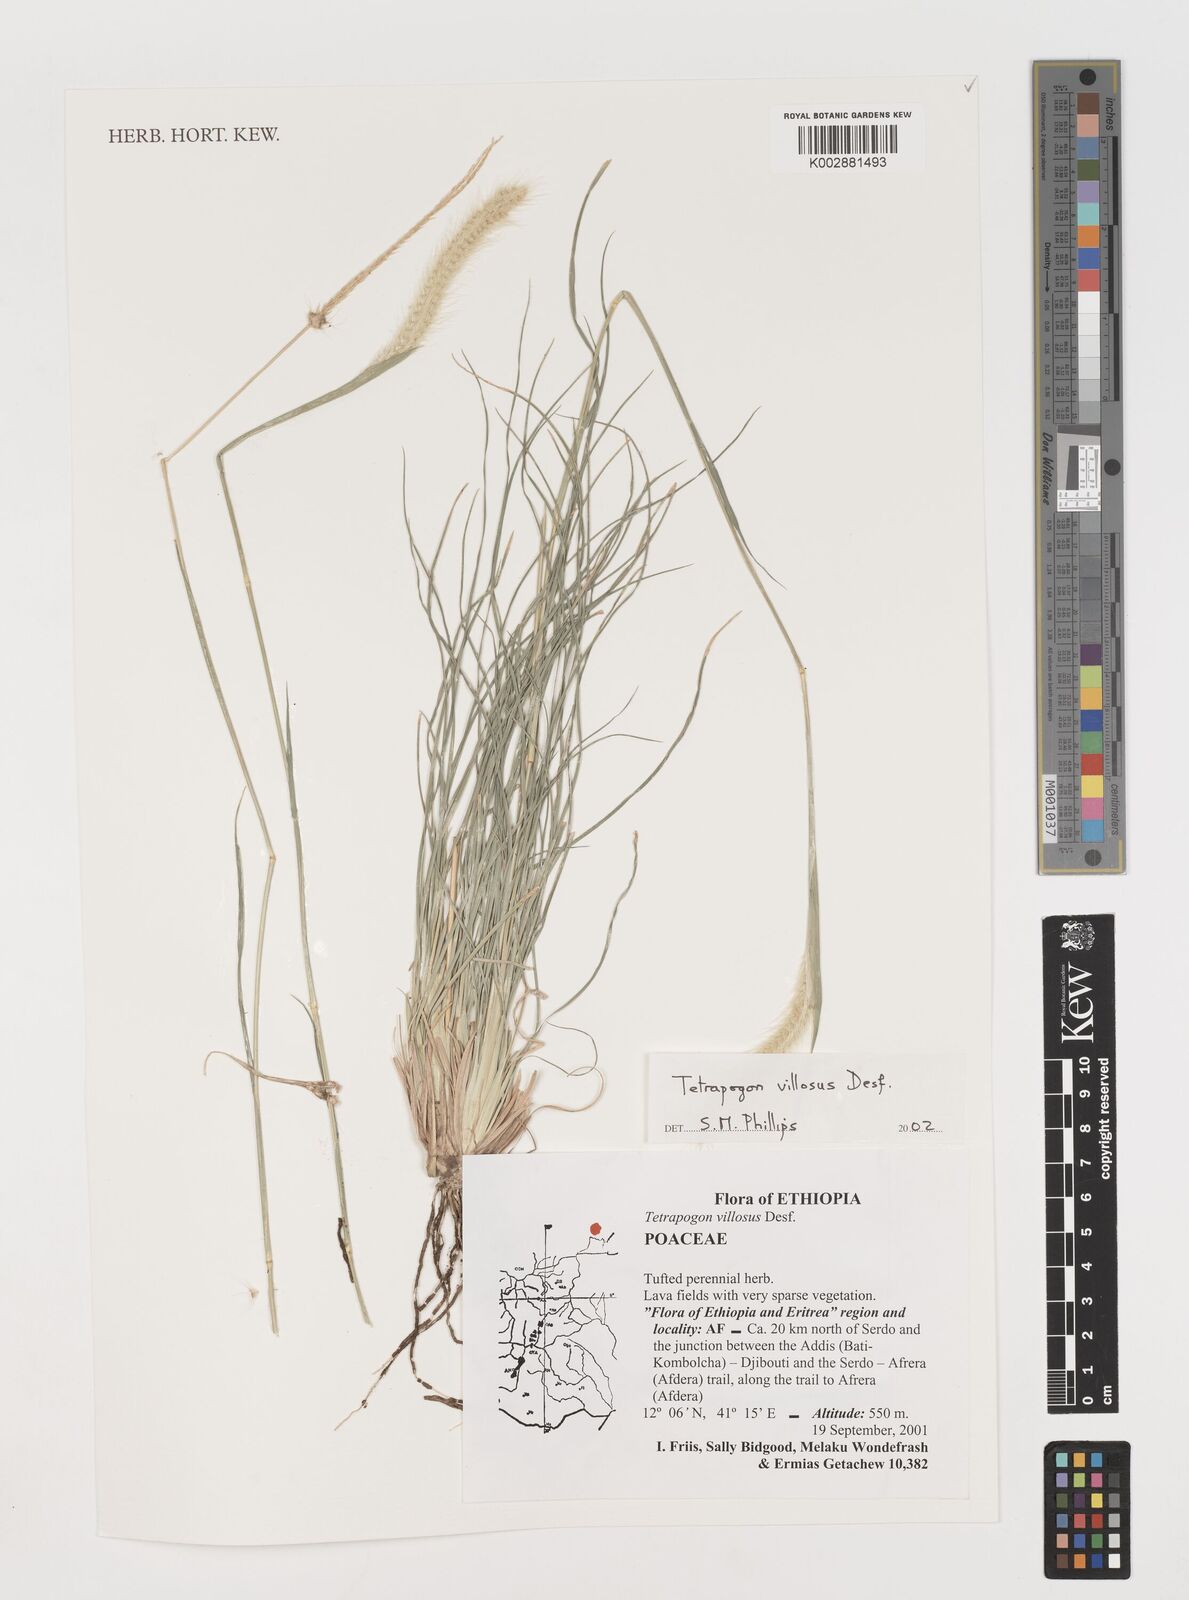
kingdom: Plantae
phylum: Tracheophyta
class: Liliopsida
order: Poales
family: Poaceae
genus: Tetrapogon
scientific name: Tetrapogon villosus
